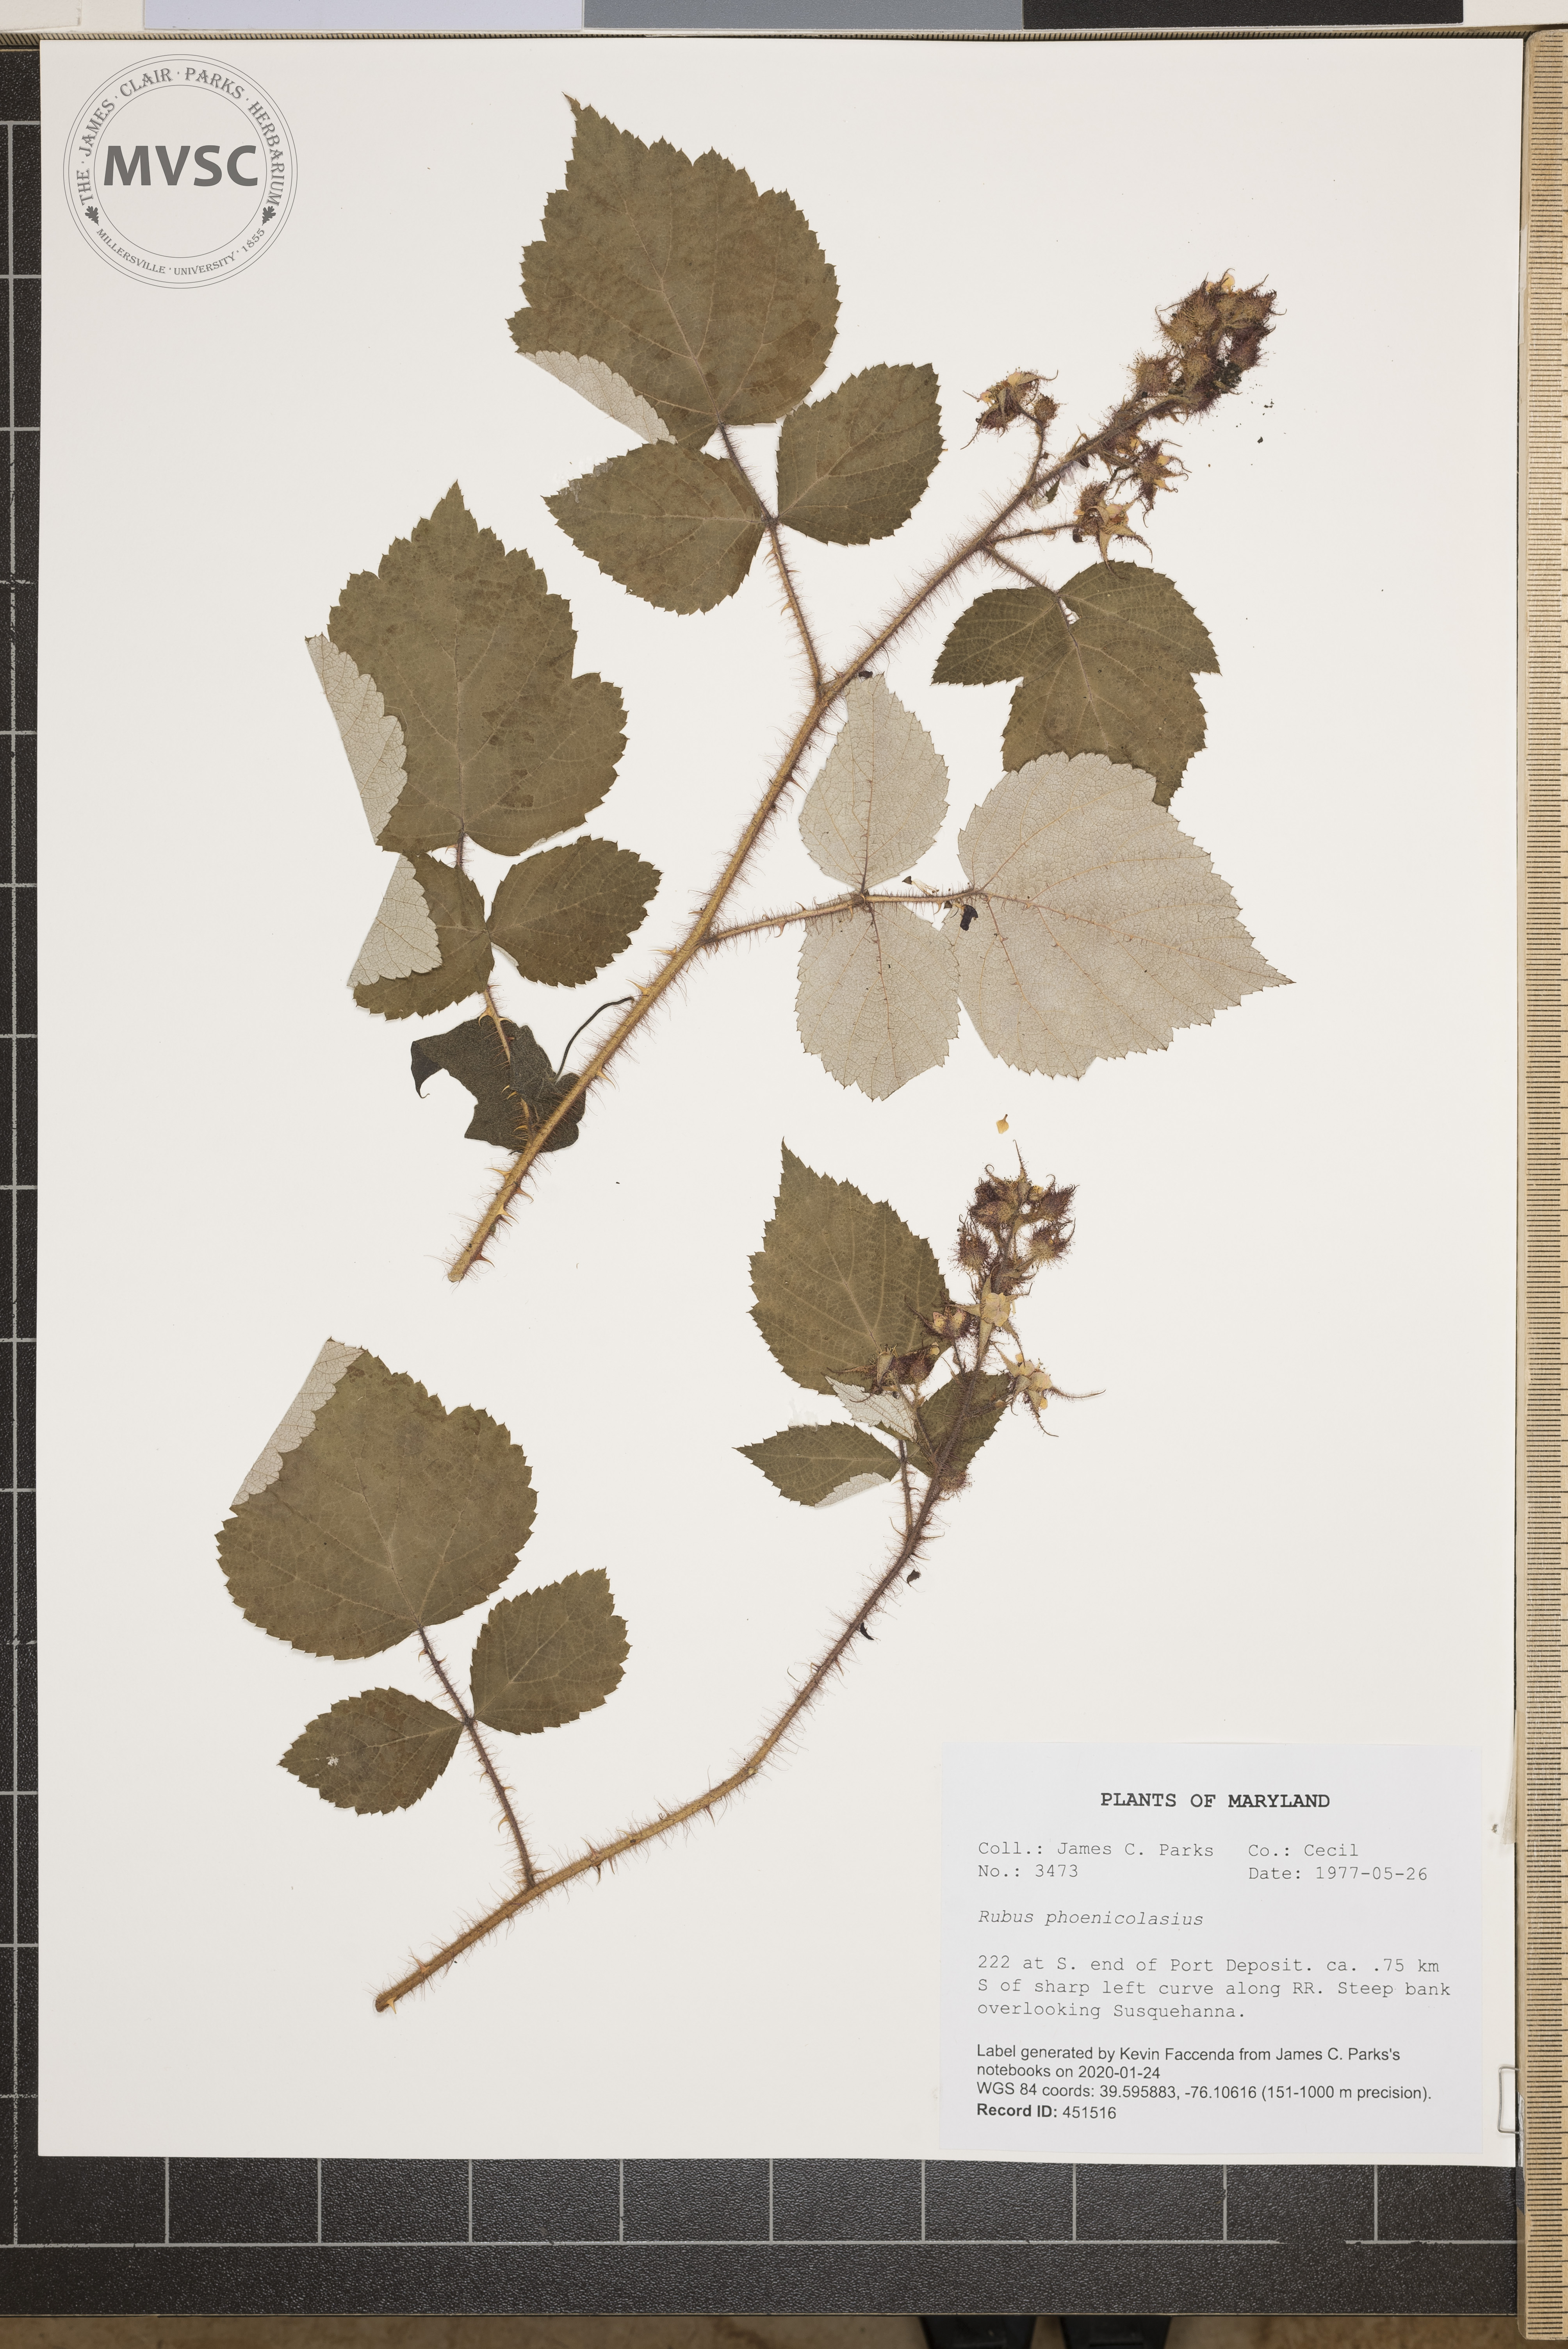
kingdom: Plantae
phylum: Tracheophyta
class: Magnoliopsida
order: Rosales
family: Rosaceae
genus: Rubus
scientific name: Rubus phoenicolasius
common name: Japanese wineberry
